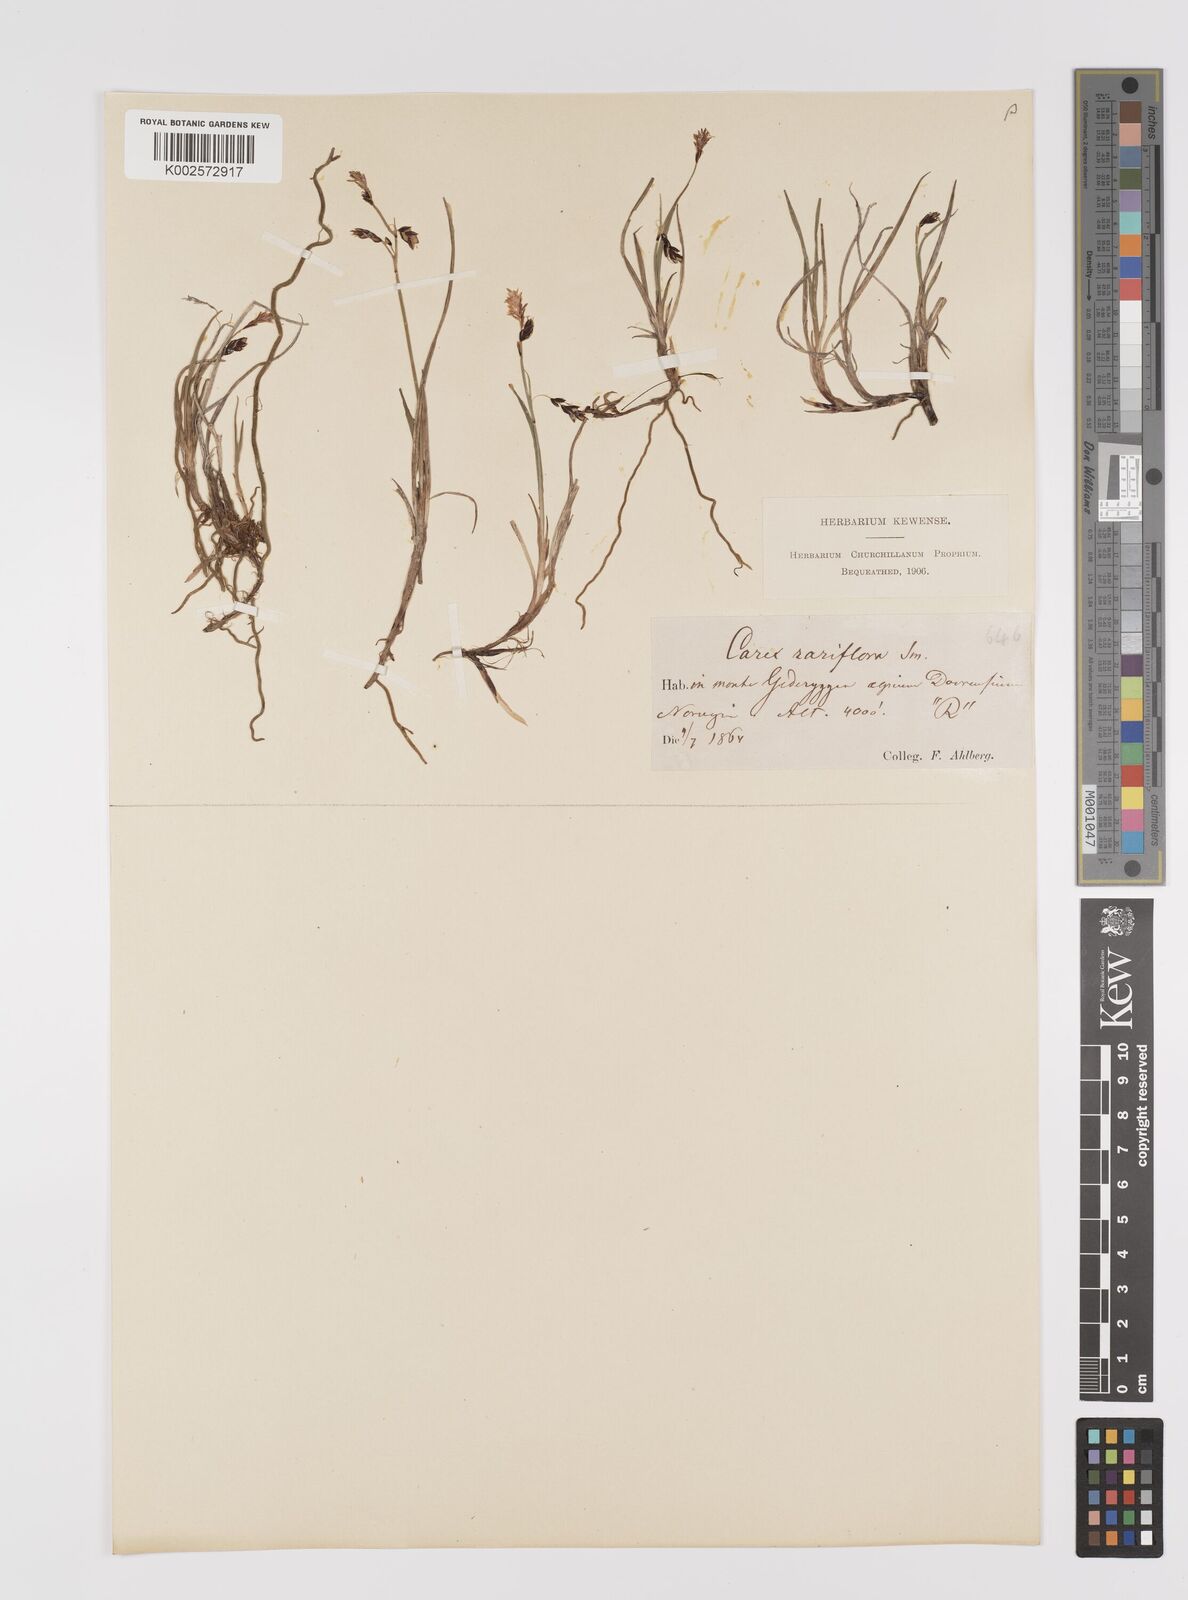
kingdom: Plantae
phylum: Tracheophyta
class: Liliopsida
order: Poales
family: Cyperaceae
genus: Carex
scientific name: Carex rariflora
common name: Loose-flowered alpine sedge
